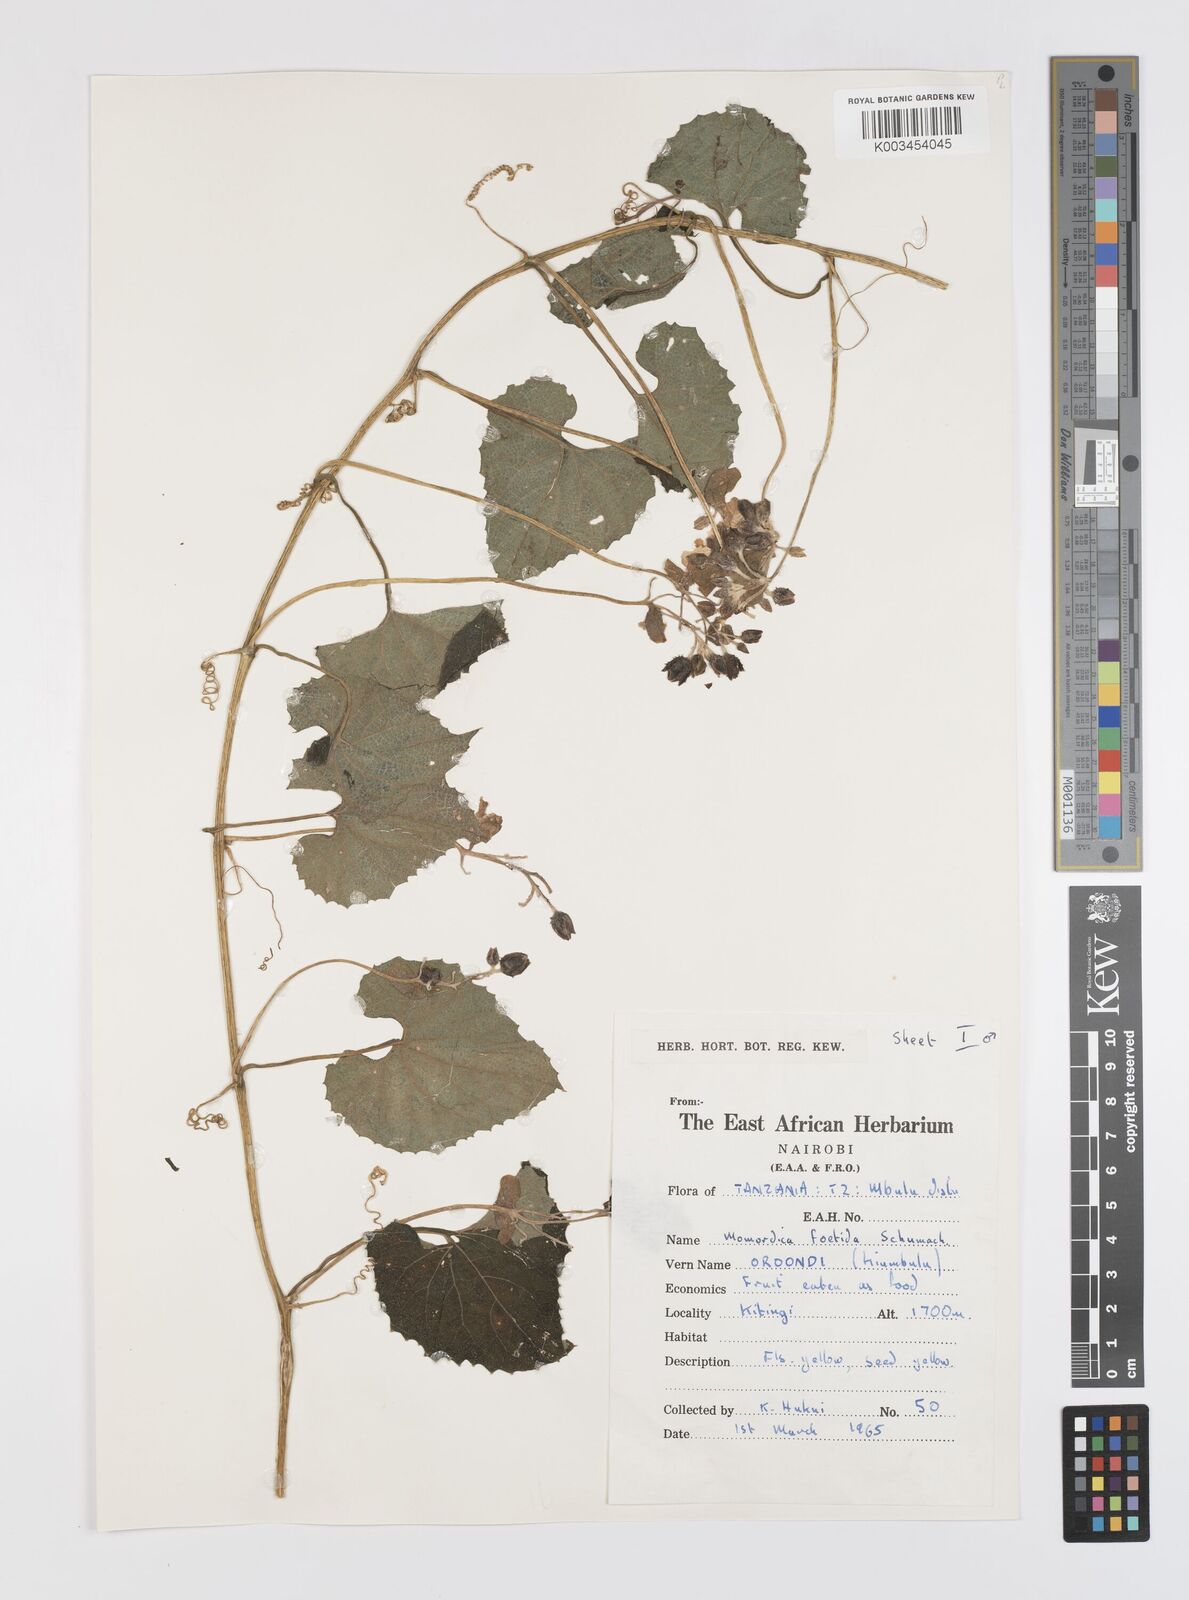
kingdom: Plantae
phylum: Tracheophyta
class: Magnoliopsida
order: Cucurbitales
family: Cucurbitaceae
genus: Momordica
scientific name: Momordica foetida
